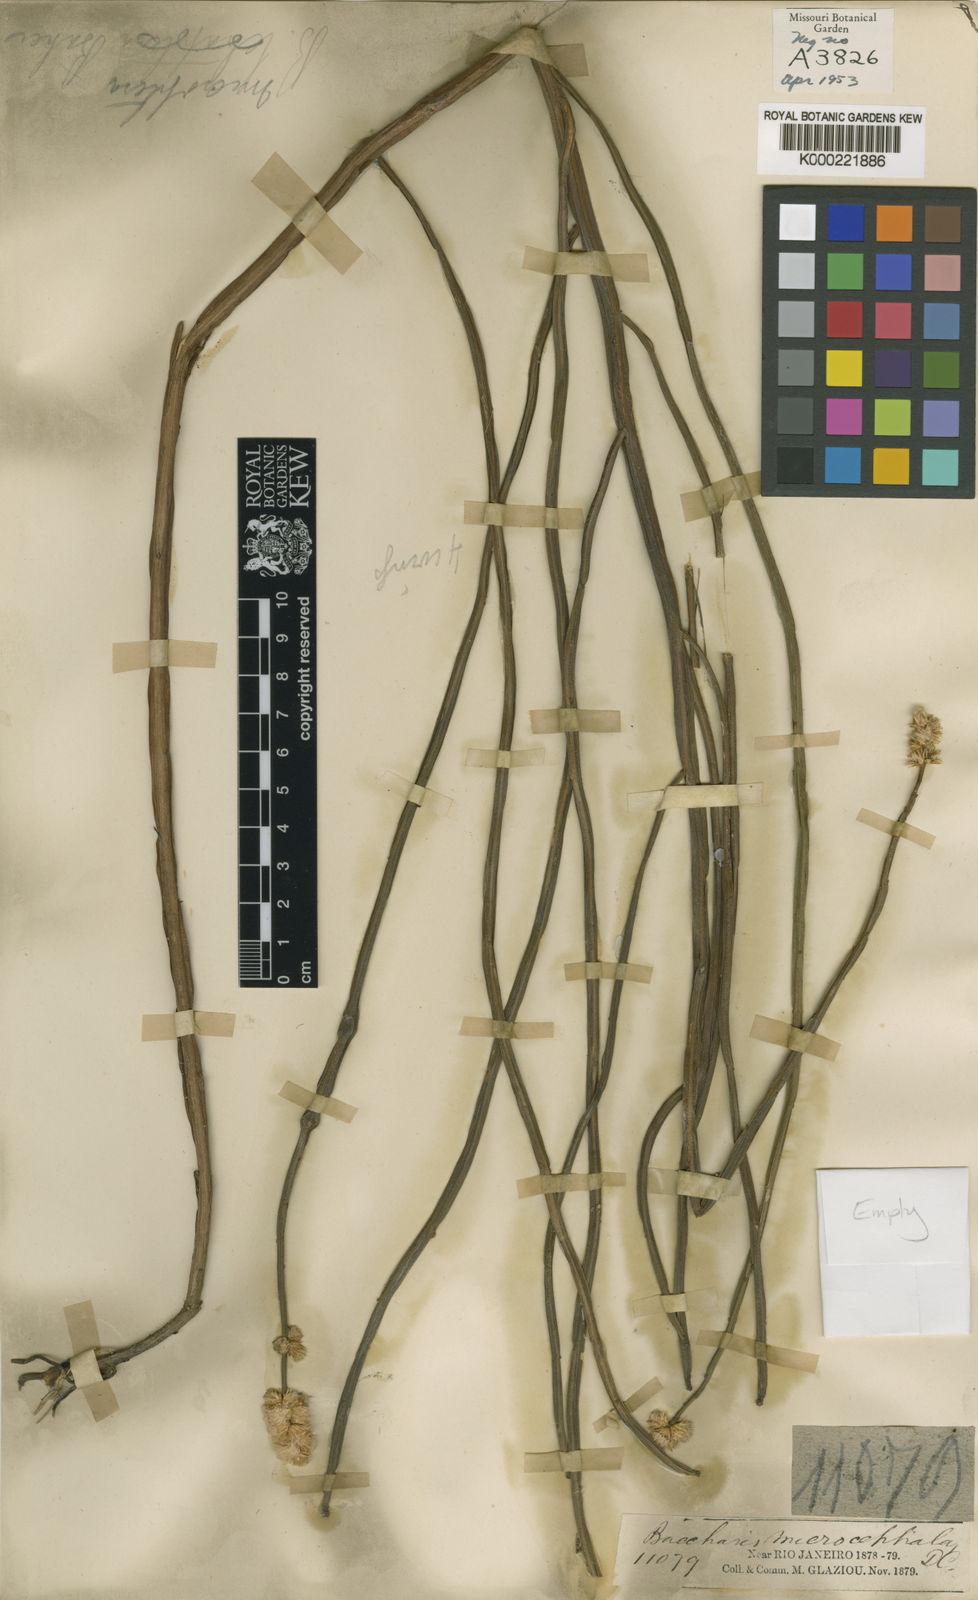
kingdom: Plantae
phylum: Tracheophyta
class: Magnoliopsida
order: Asterales
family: Asteraceae
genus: Baccharis
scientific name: Baccharis microcephala
